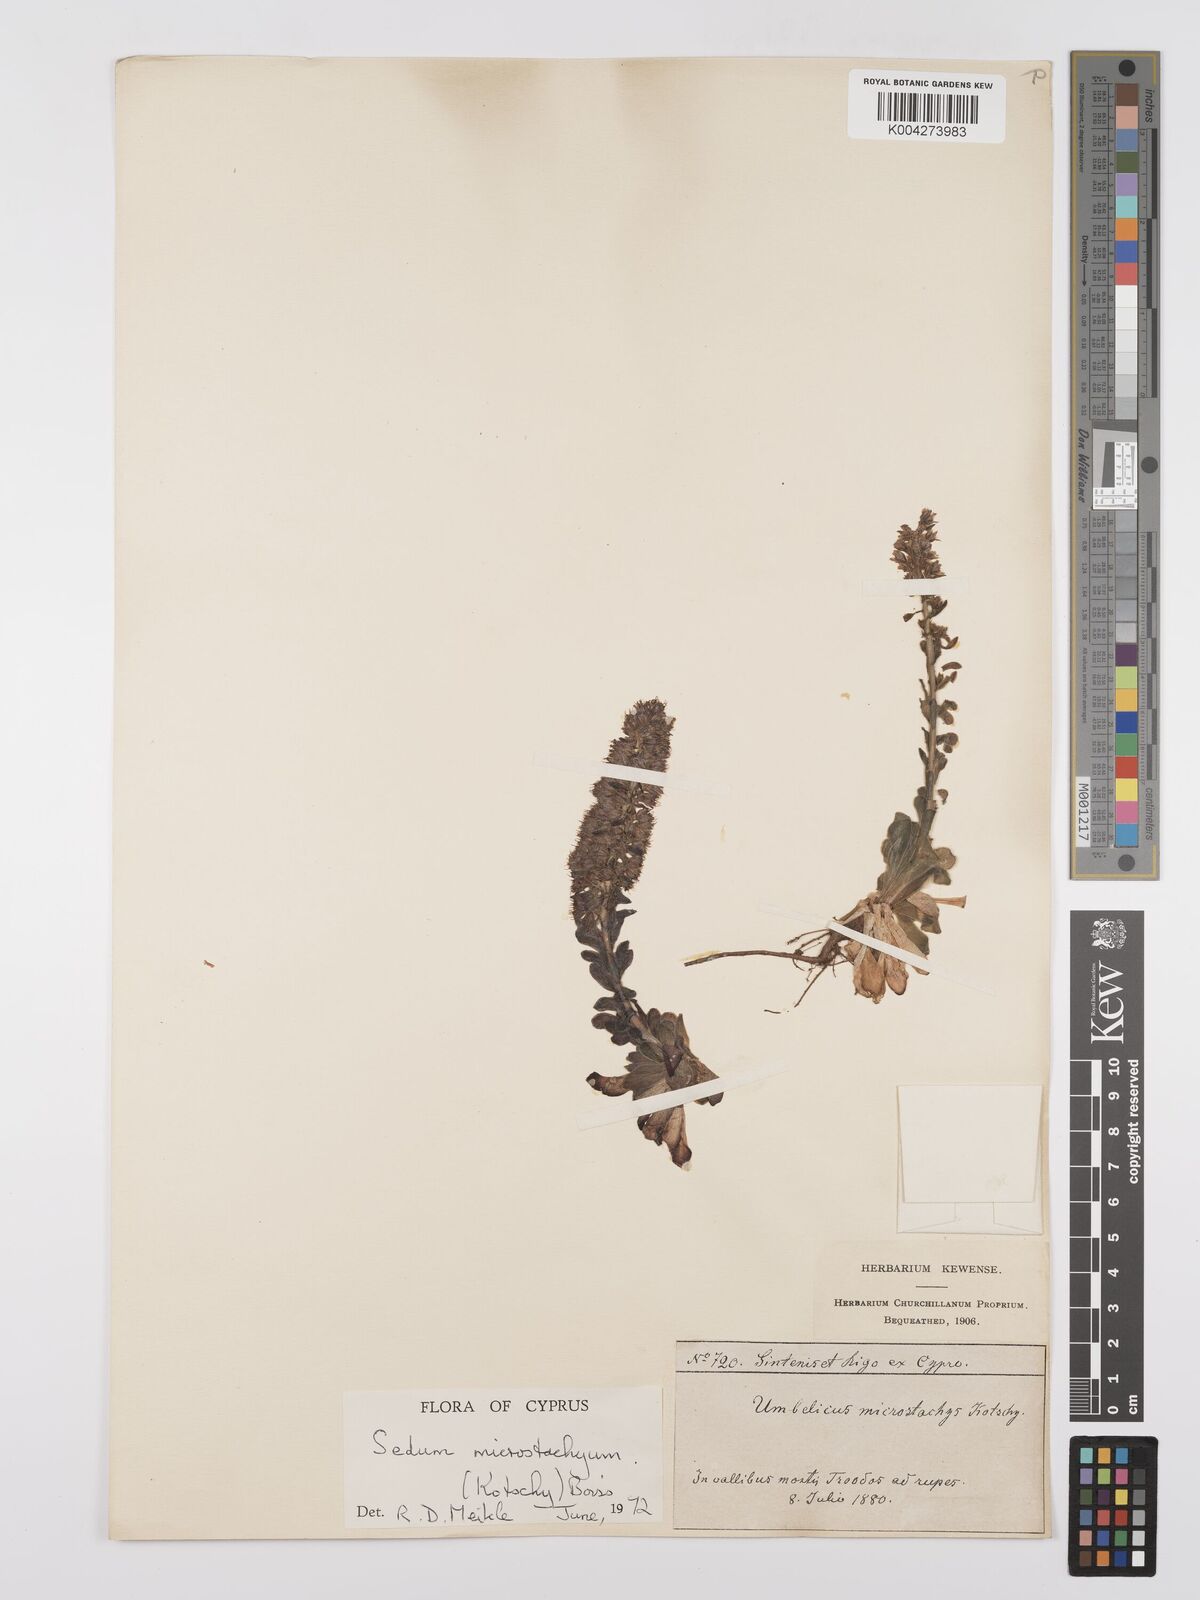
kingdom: Plantae
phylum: Tracheophyta
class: Magnoliopsida
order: Saxifragales
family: Crassulaceae
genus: Sedum
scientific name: Sedum microstachyum
